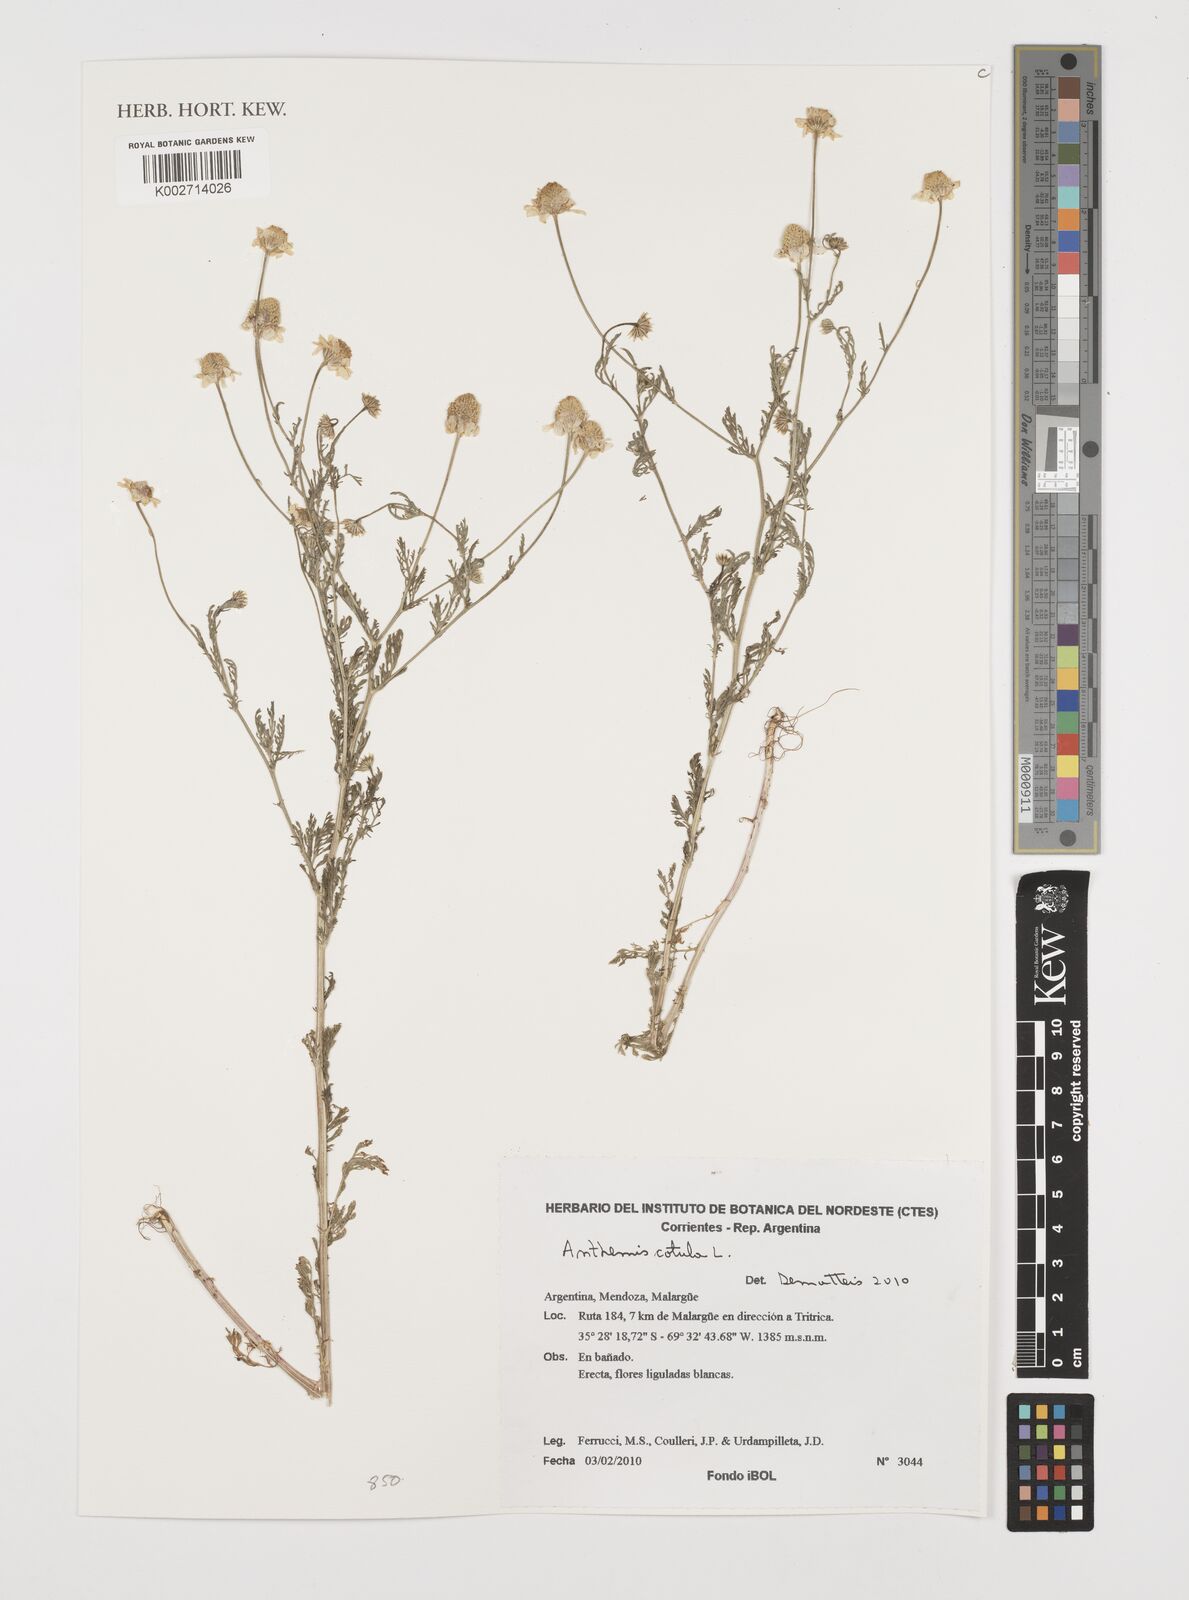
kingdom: Plantae
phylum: Tracheophyta
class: Magnoliopsida
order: Asterales
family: Asteraceae
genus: Anthemis
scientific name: Anthemis cotula
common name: Stinking chamomile
